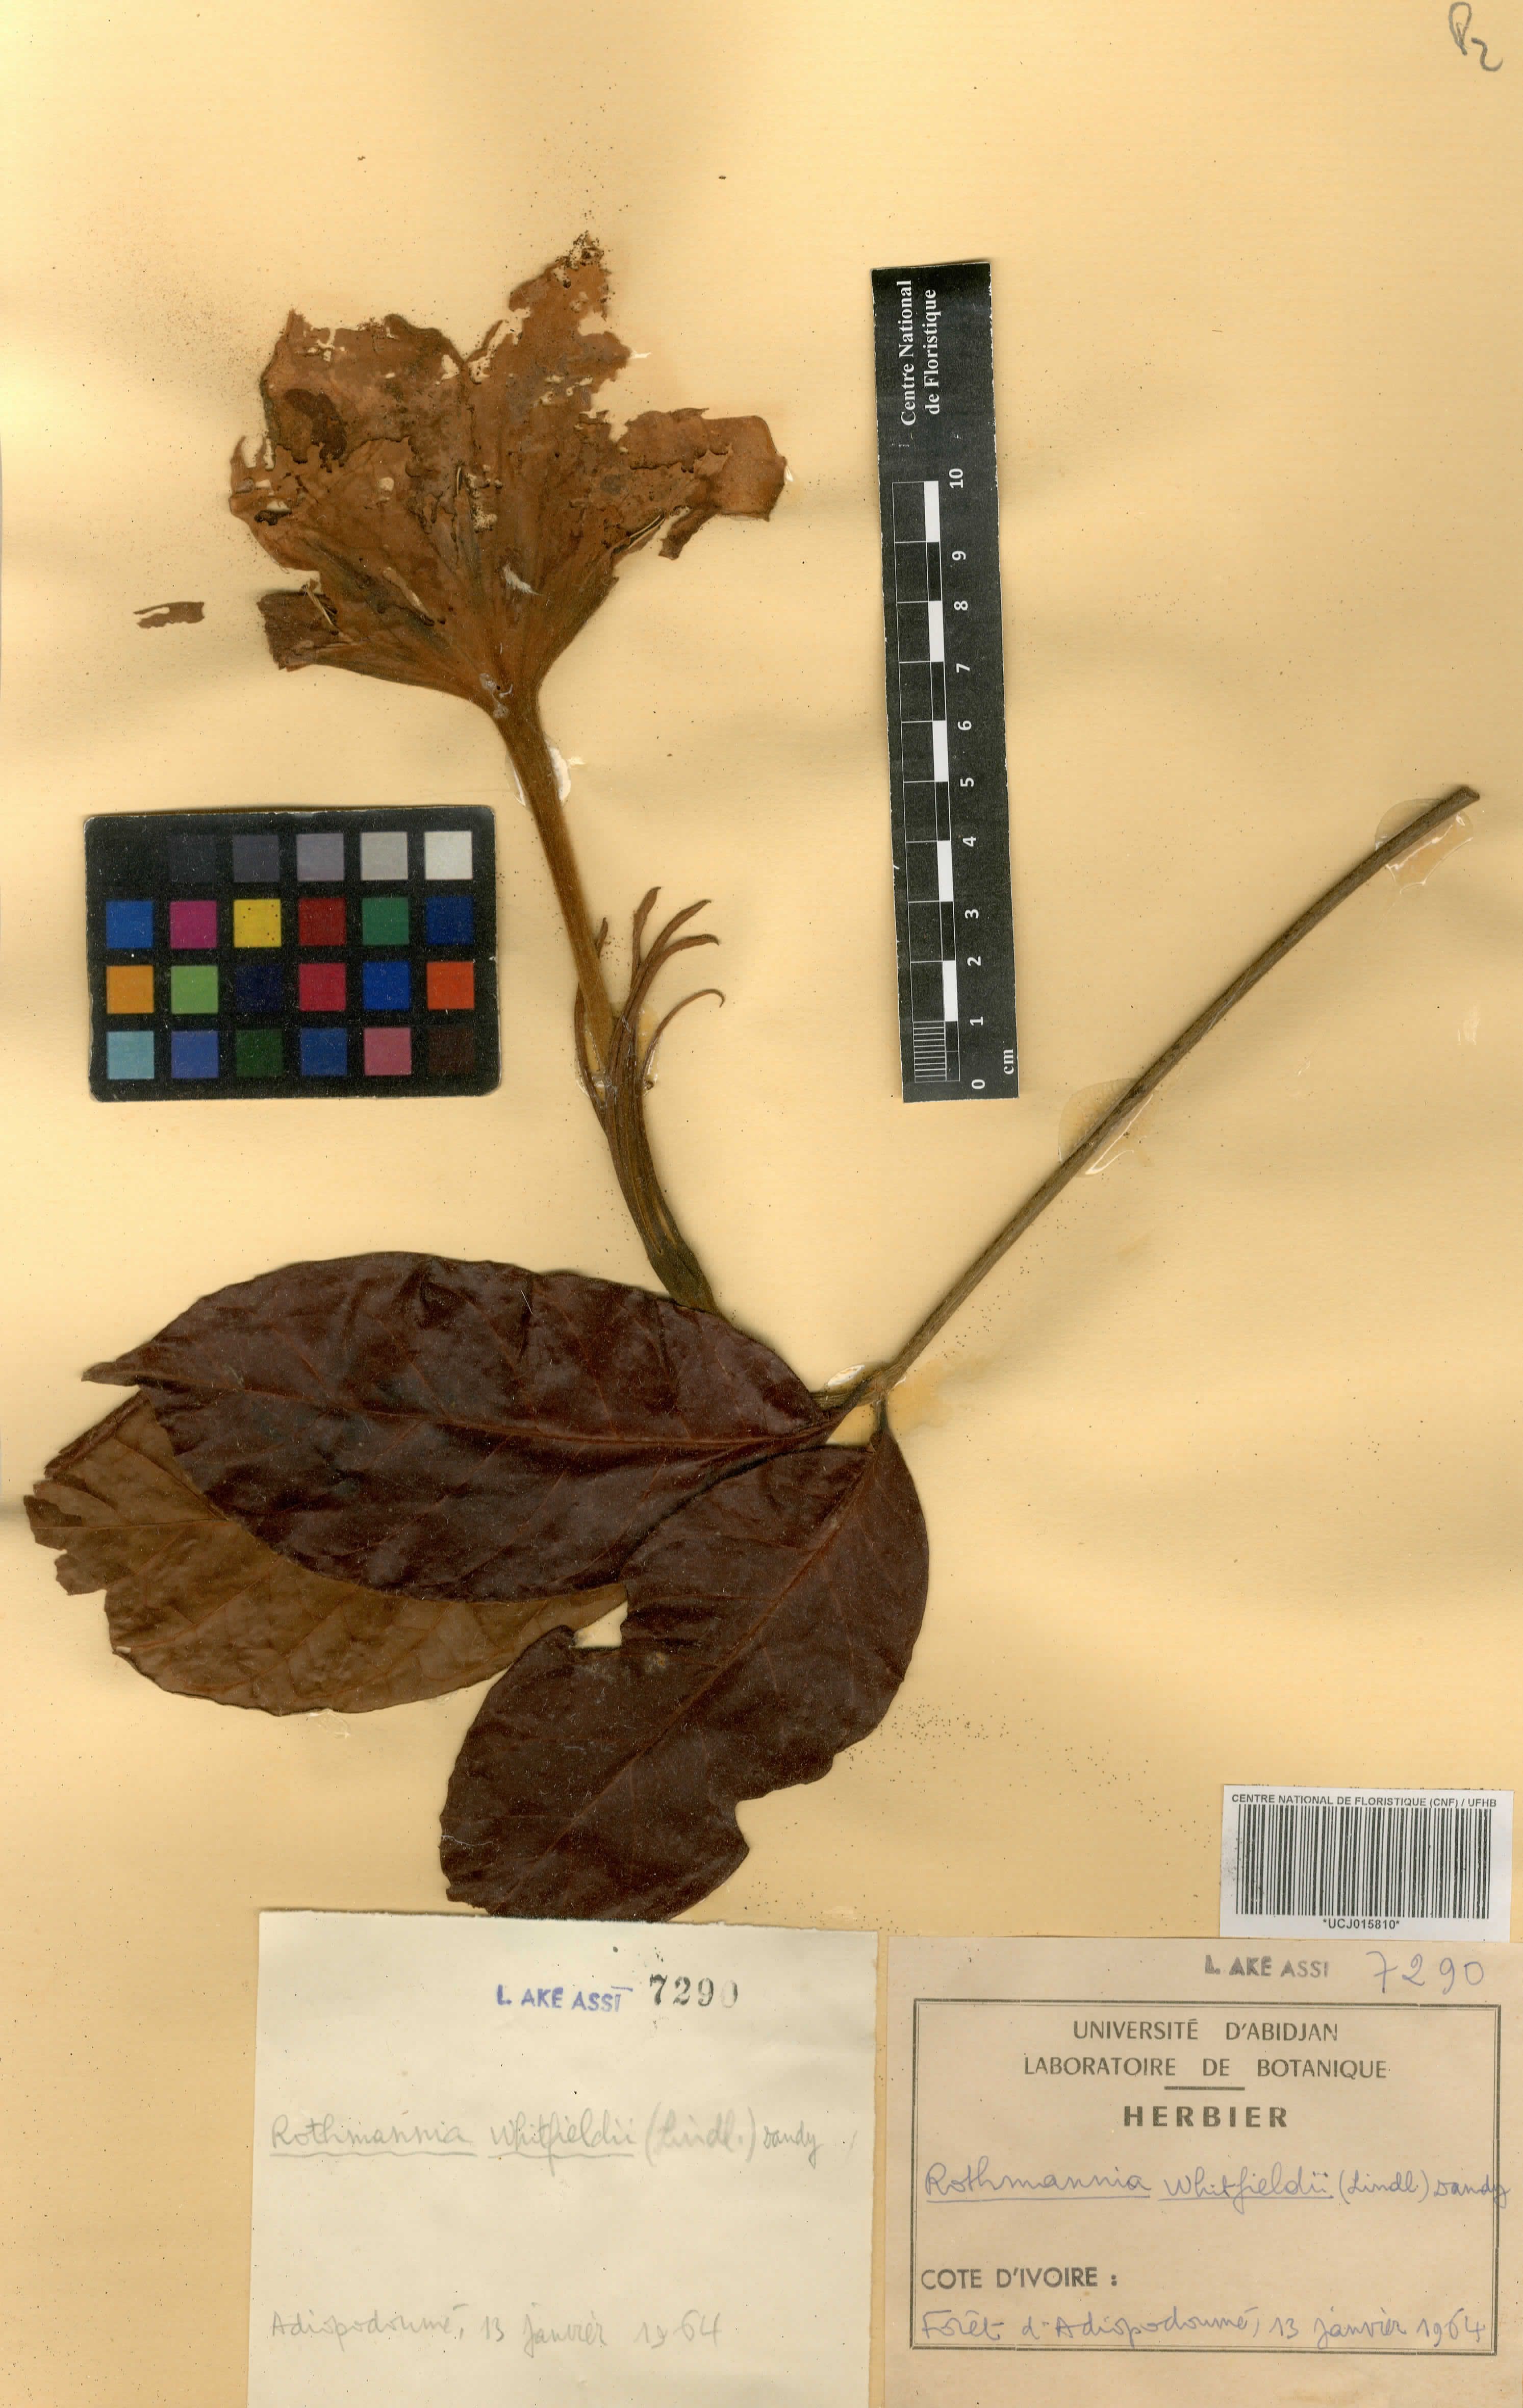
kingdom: Plantae
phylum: Tracheophyta
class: Magnoliopsida
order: Gentianales
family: Rubiaceae
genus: Rothmannia
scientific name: Rothmannia whitfieldii
